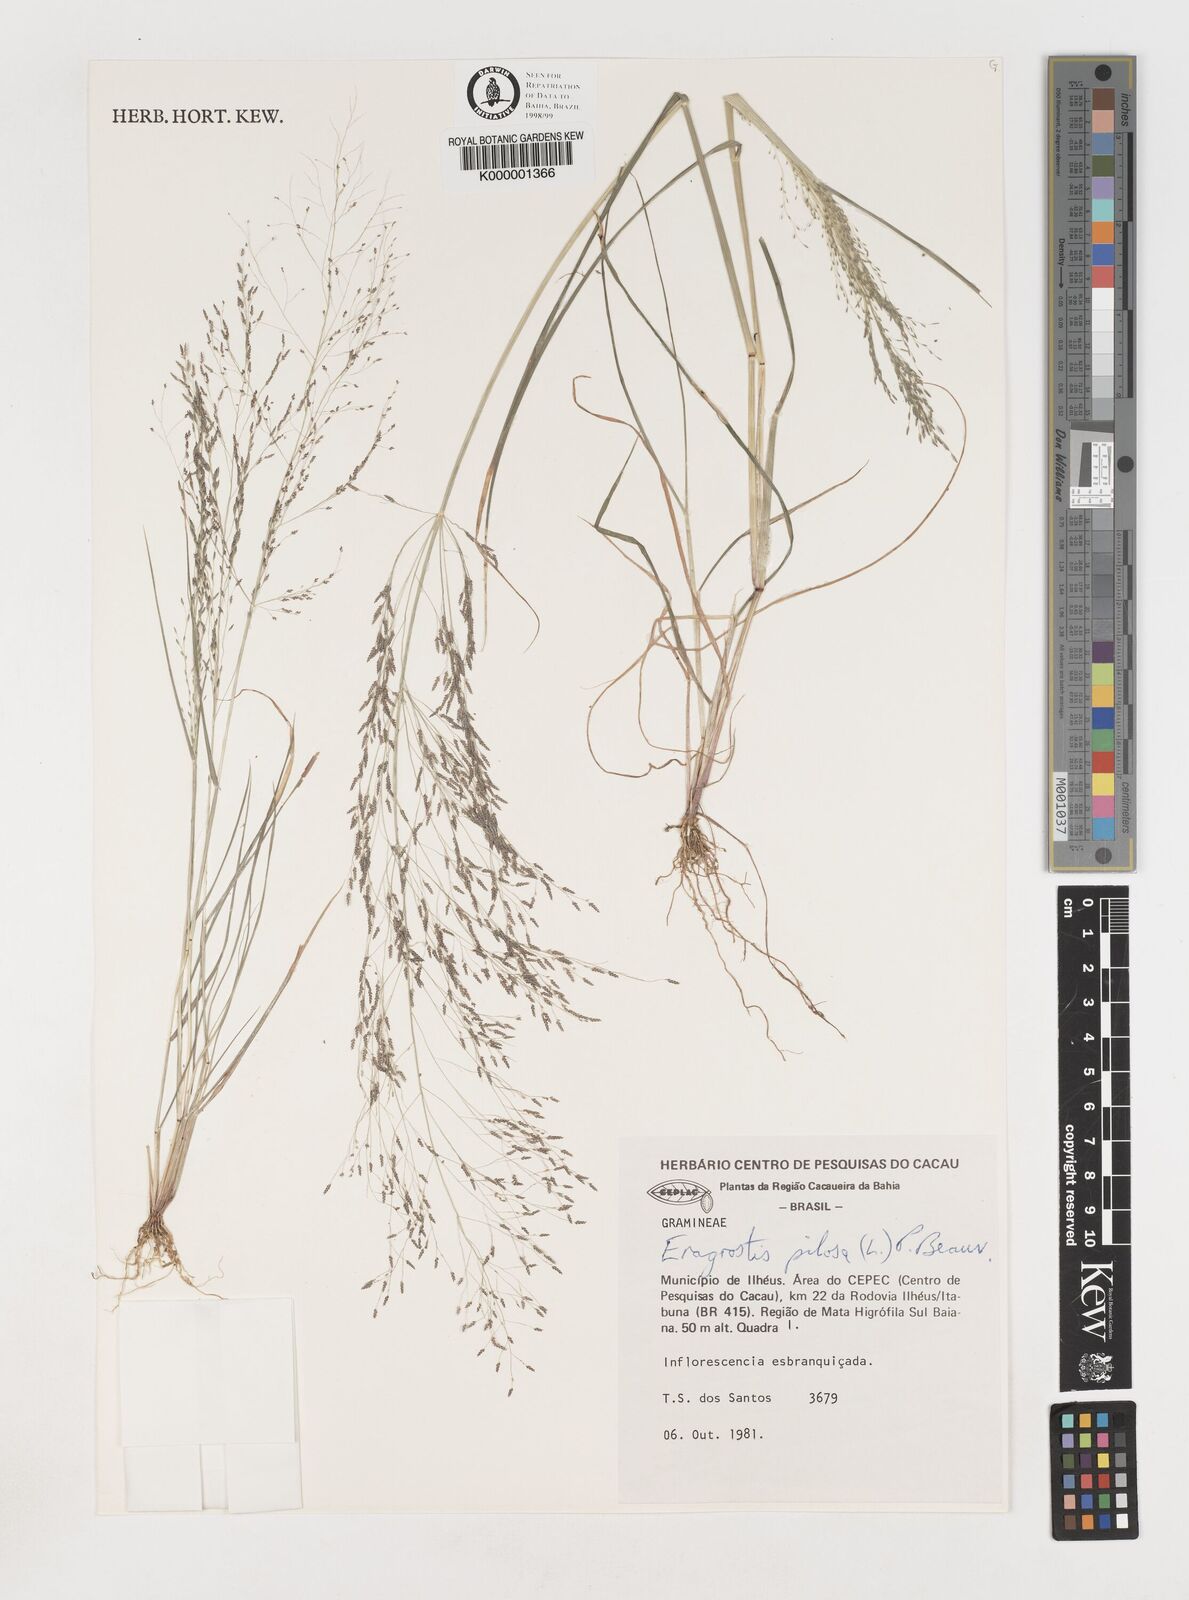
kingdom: Plantae
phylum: Tracheophyta
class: Liliopsida
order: Poales
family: Poaceae
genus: Eragrostis
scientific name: Eragrostis pilosa
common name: Indian lovegrass
